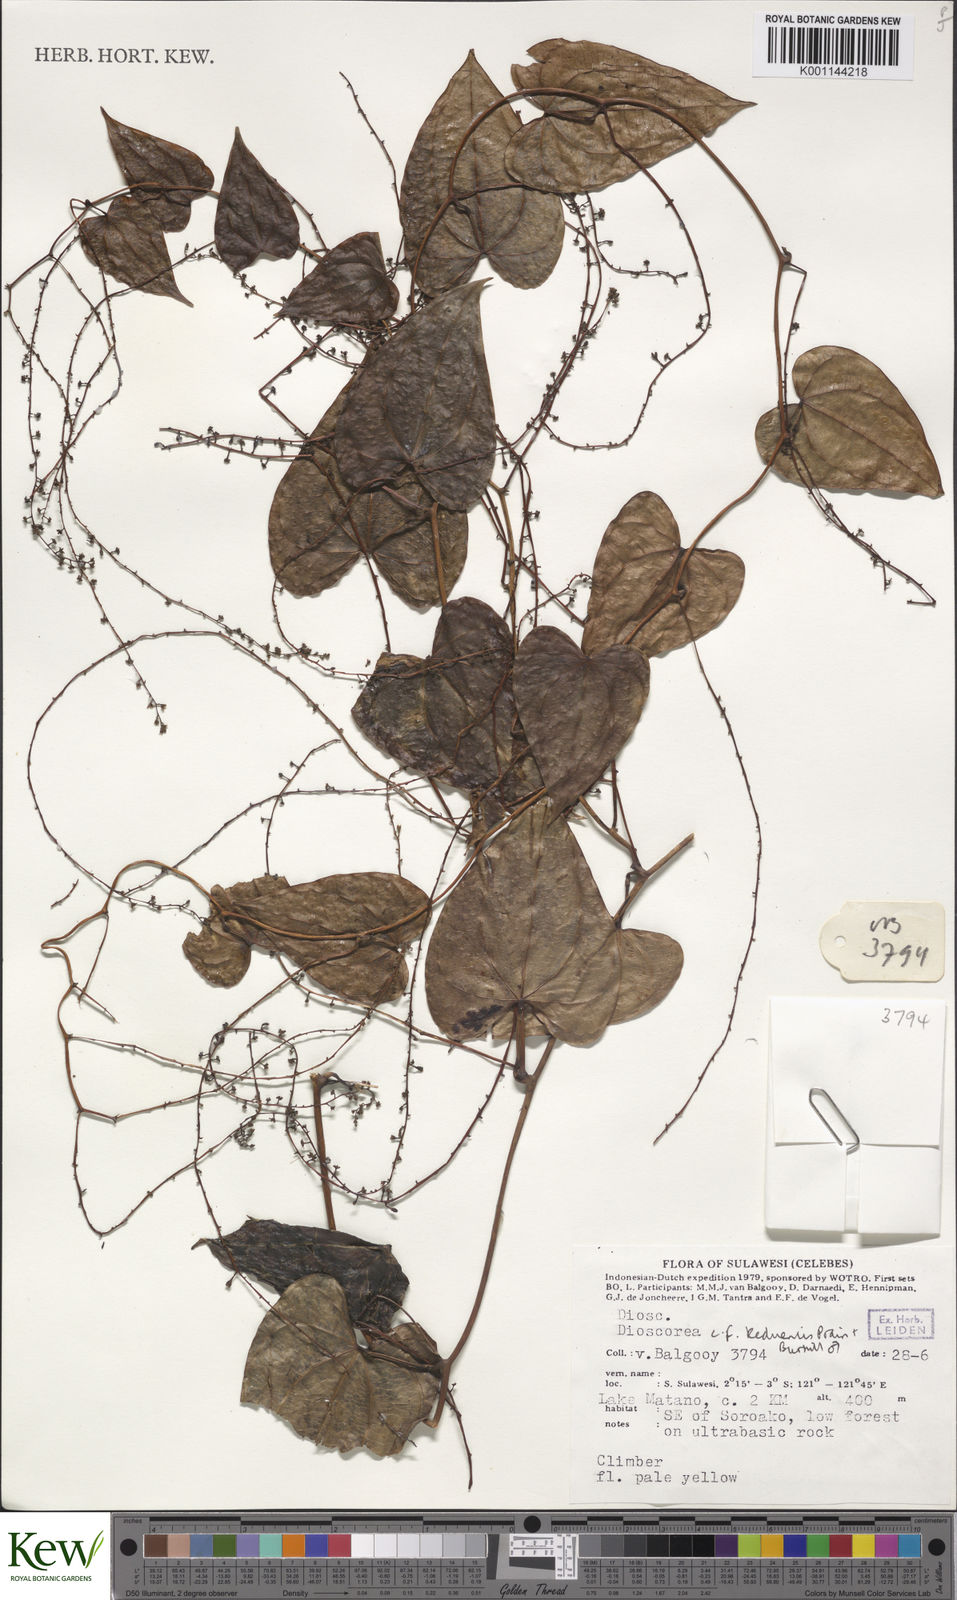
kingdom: Plantae
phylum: Tracheophyta
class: Liliopsida
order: Dioscoreales
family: Dioscoreaceae
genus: Dioscorea
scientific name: Dioscorea keduensis
